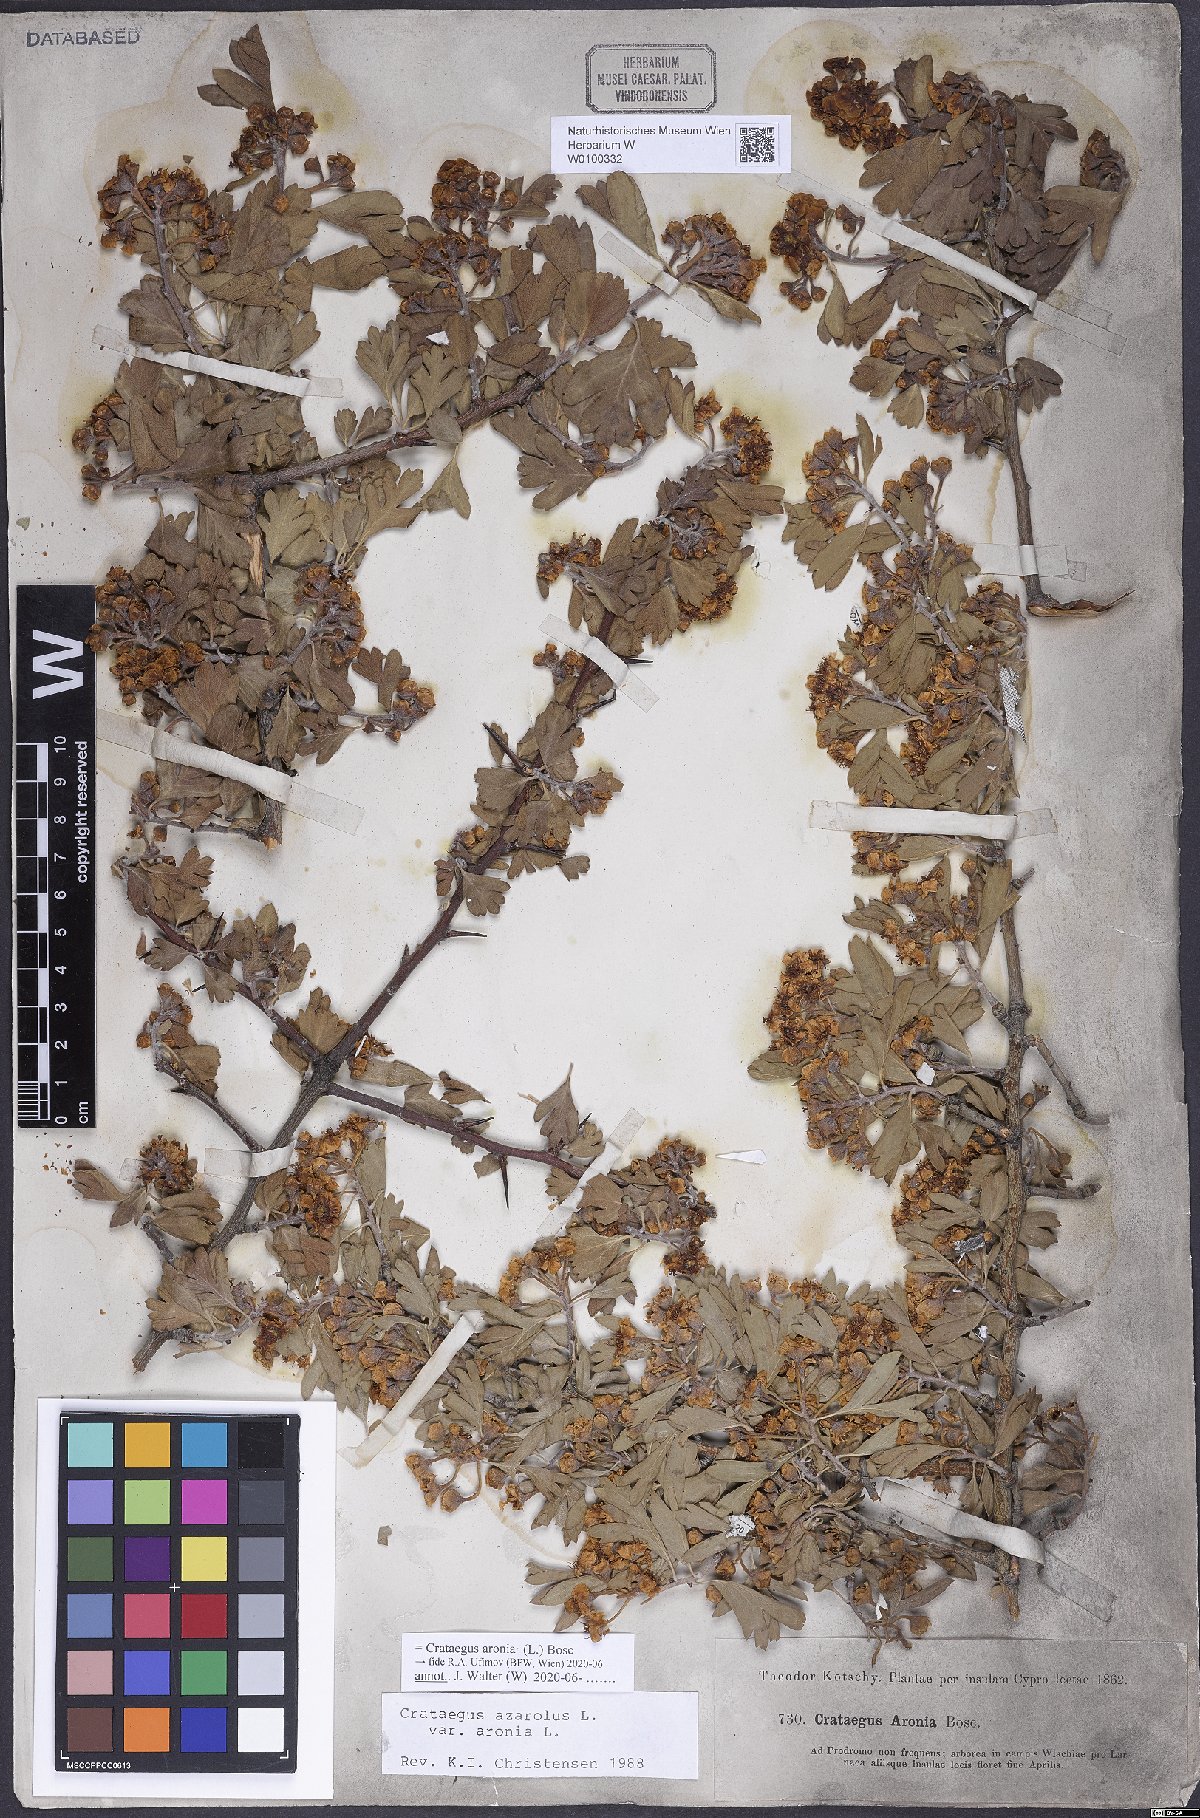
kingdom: Plantae
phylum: Tracheophyta
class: Magnoliopsida
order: Rosales
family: Rosaceae
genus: Crataegus
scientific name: Crataegus azarolus
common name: Azarole
